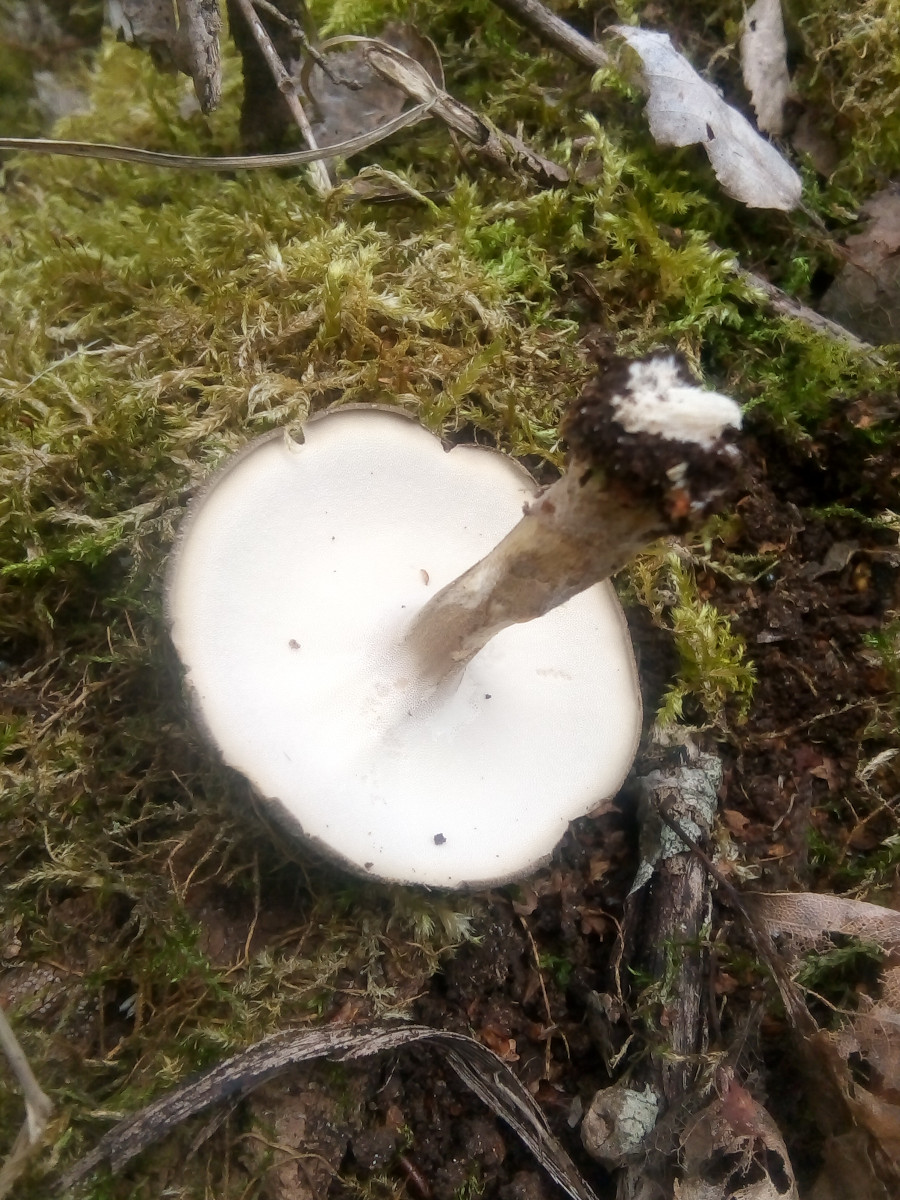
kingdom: Fungi
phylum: Basidiomycota
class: Agaricomycetes
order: Polyporales
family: Polyporaceae
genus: Lentinus
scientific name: Lentinus substrictus
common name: forårs-stilkporesvamp
